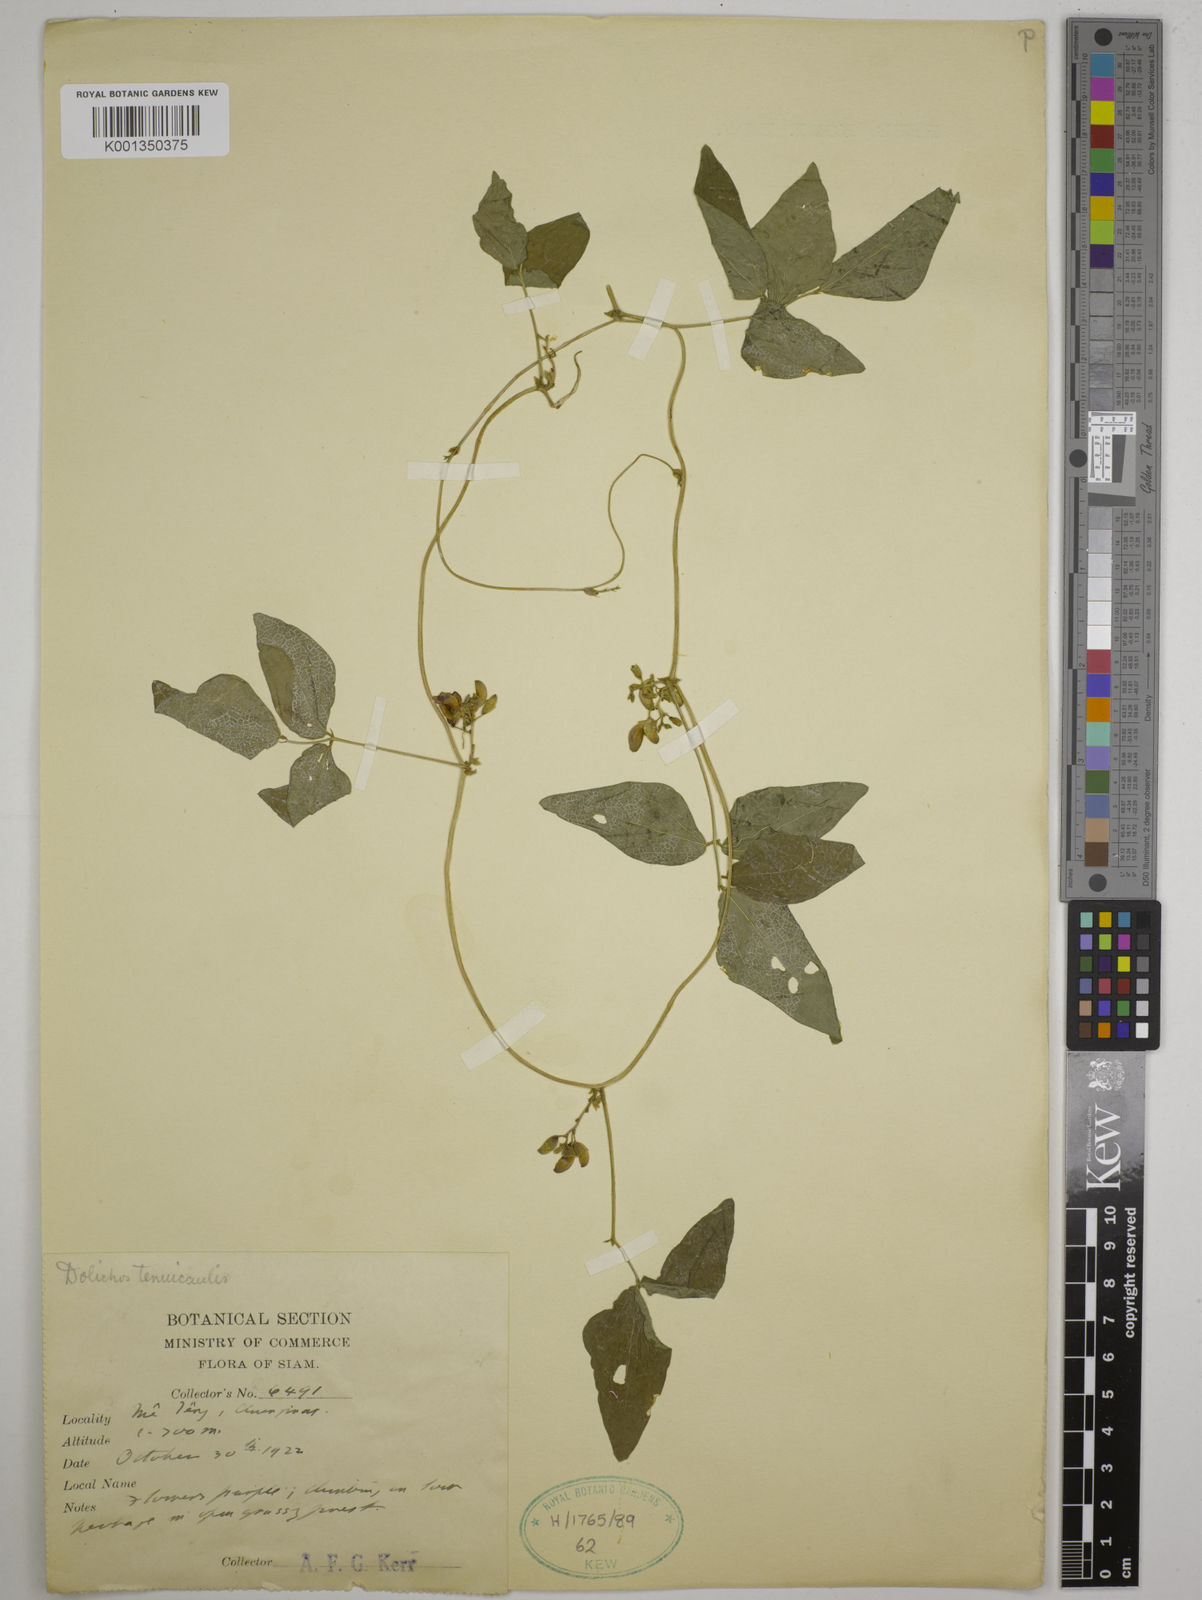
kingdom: Plantae
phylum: Tracheophyta
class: Magnoliopsida
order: Fabales
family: Fabaceae
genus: Dolichos
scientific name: Dolichos tenuicaulis
